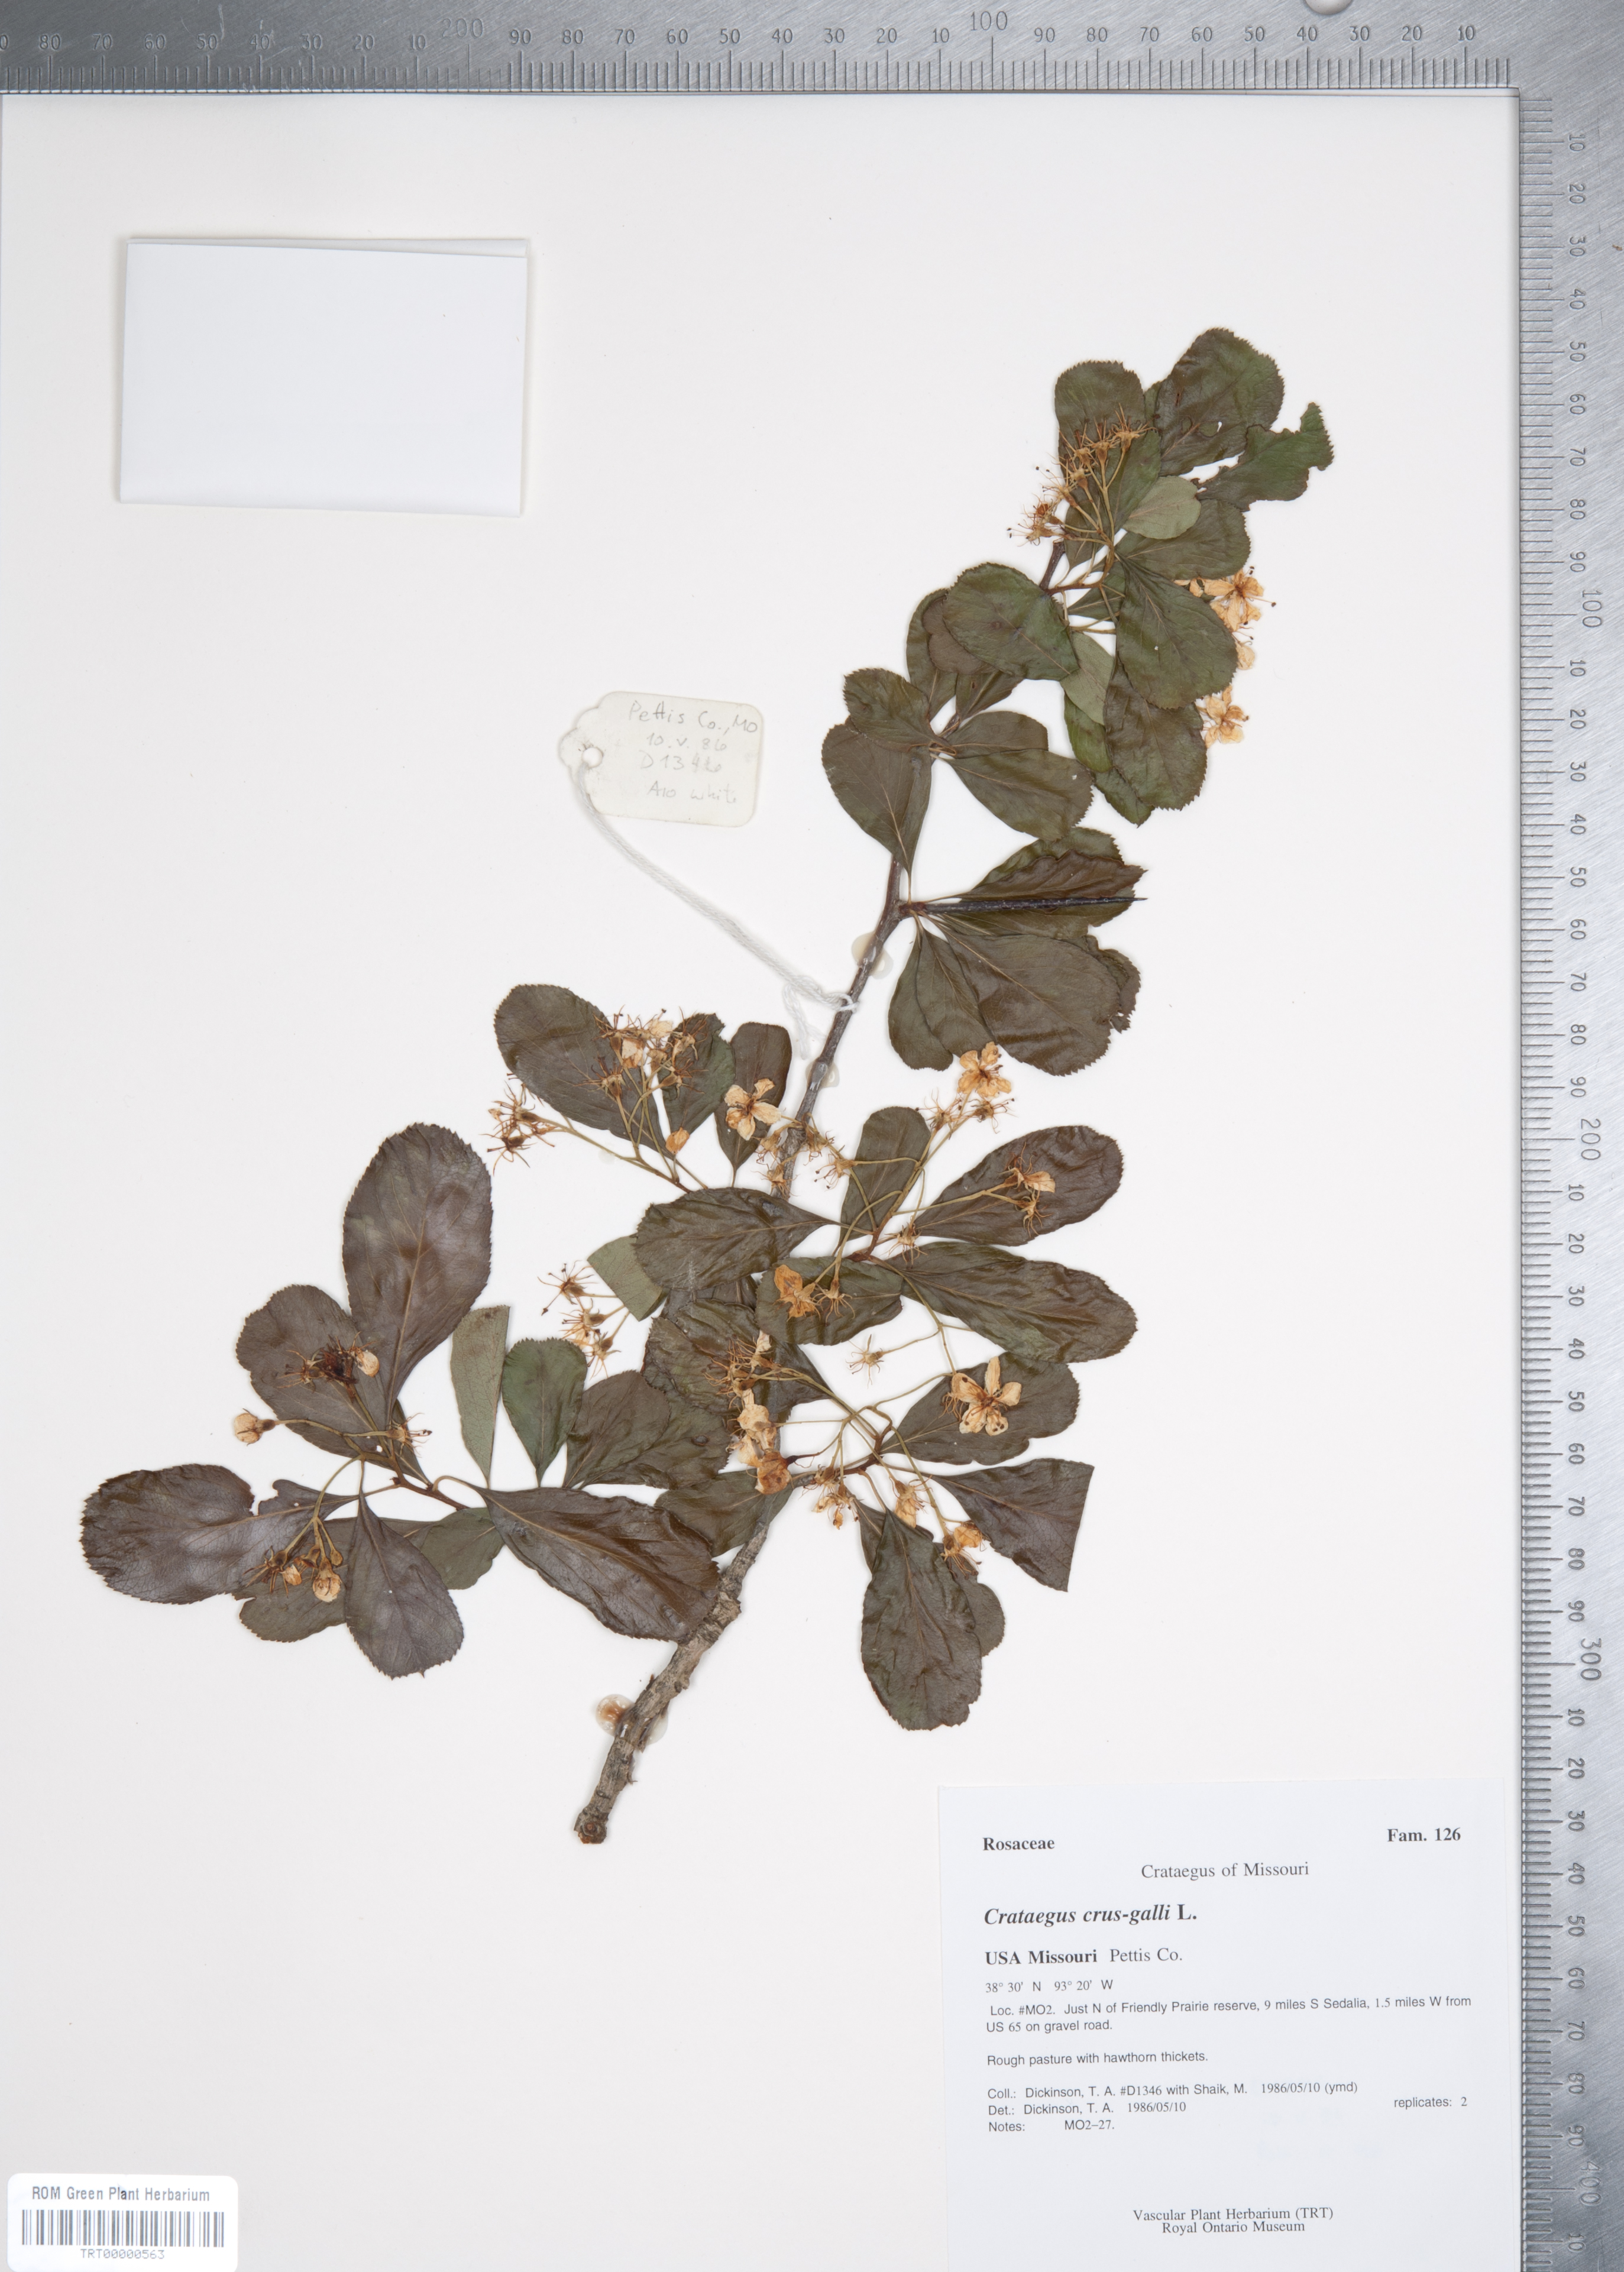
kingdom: Plantae
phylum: Tracheophyta
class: Magnoliopsida
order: Rosales
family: Rosaceae
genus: Crataegus
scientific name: Crataegus crus-galli
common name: Cockspurthorn
